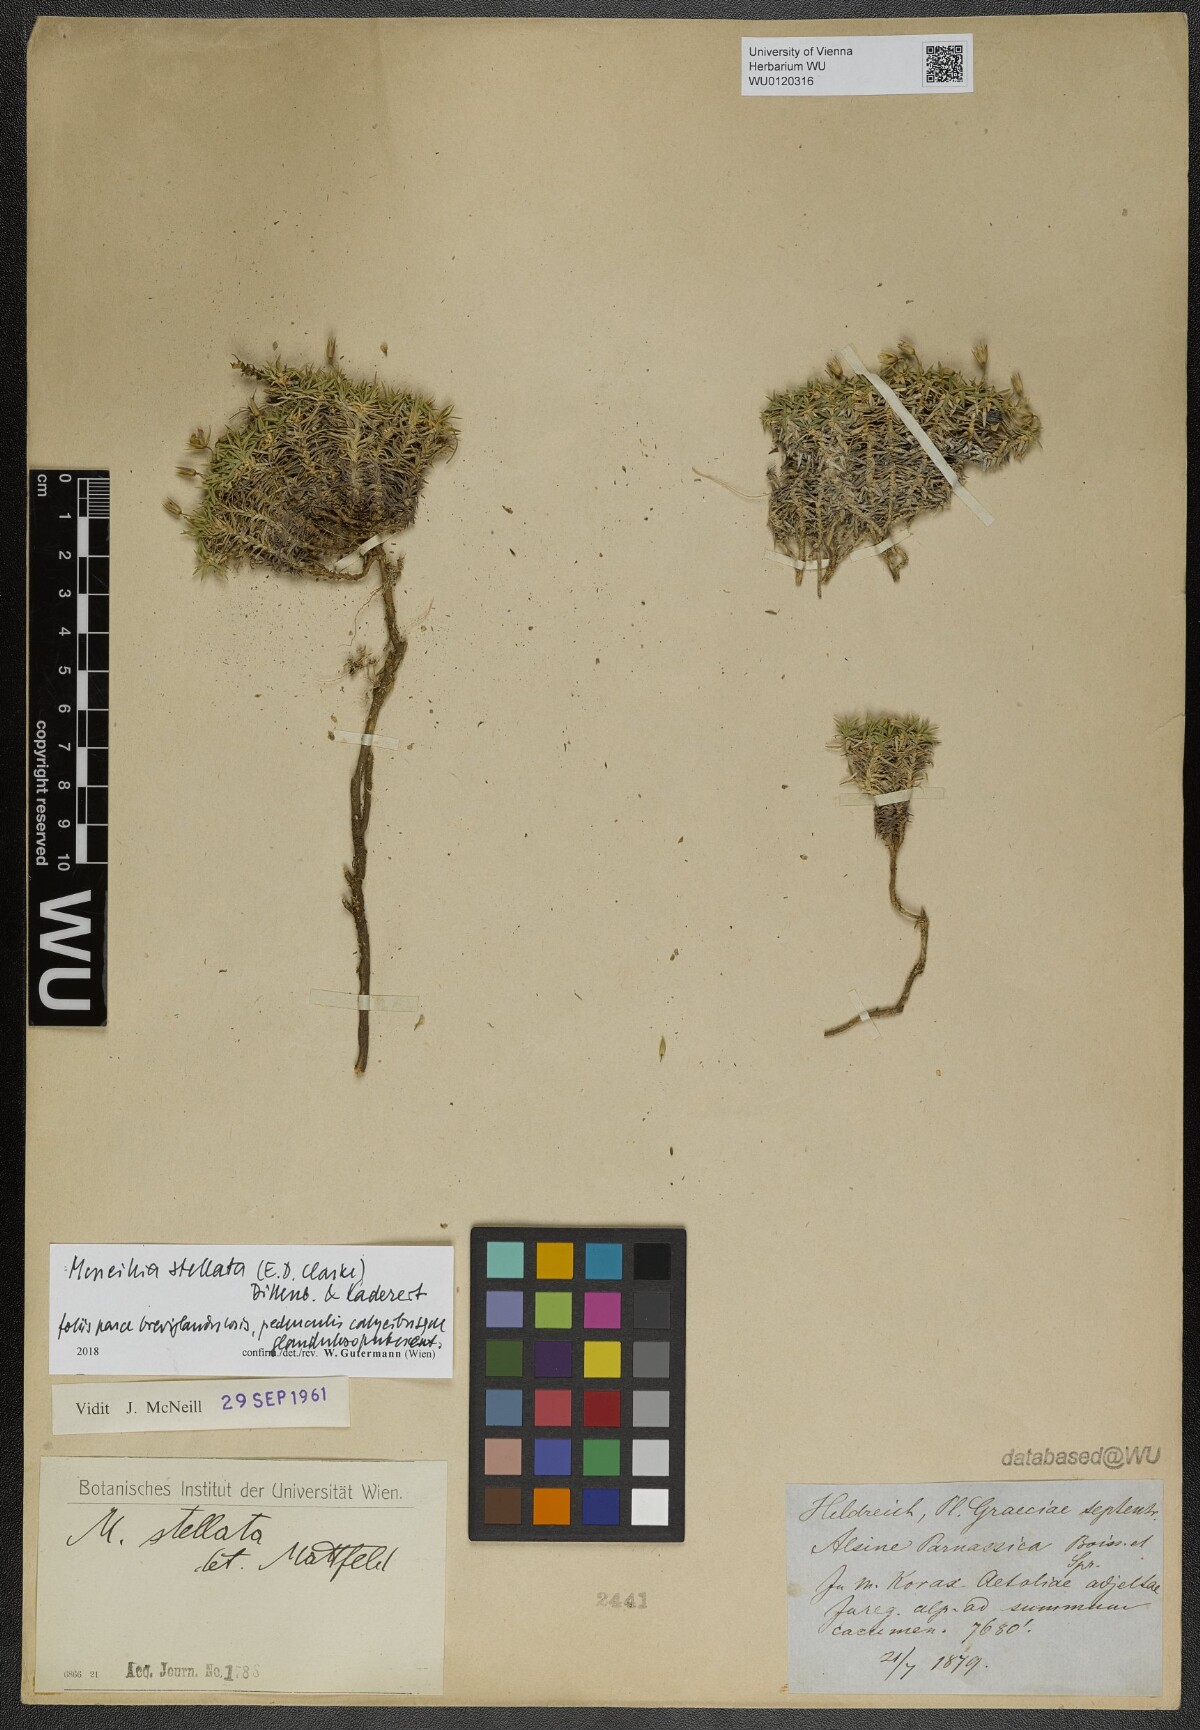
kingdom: Plantae
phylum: Tracheophyta
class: Magnoliopsida
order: Caryophyllales
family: Caryophyllaceae
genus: Mcneillia
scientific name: Mcneillia stellata
